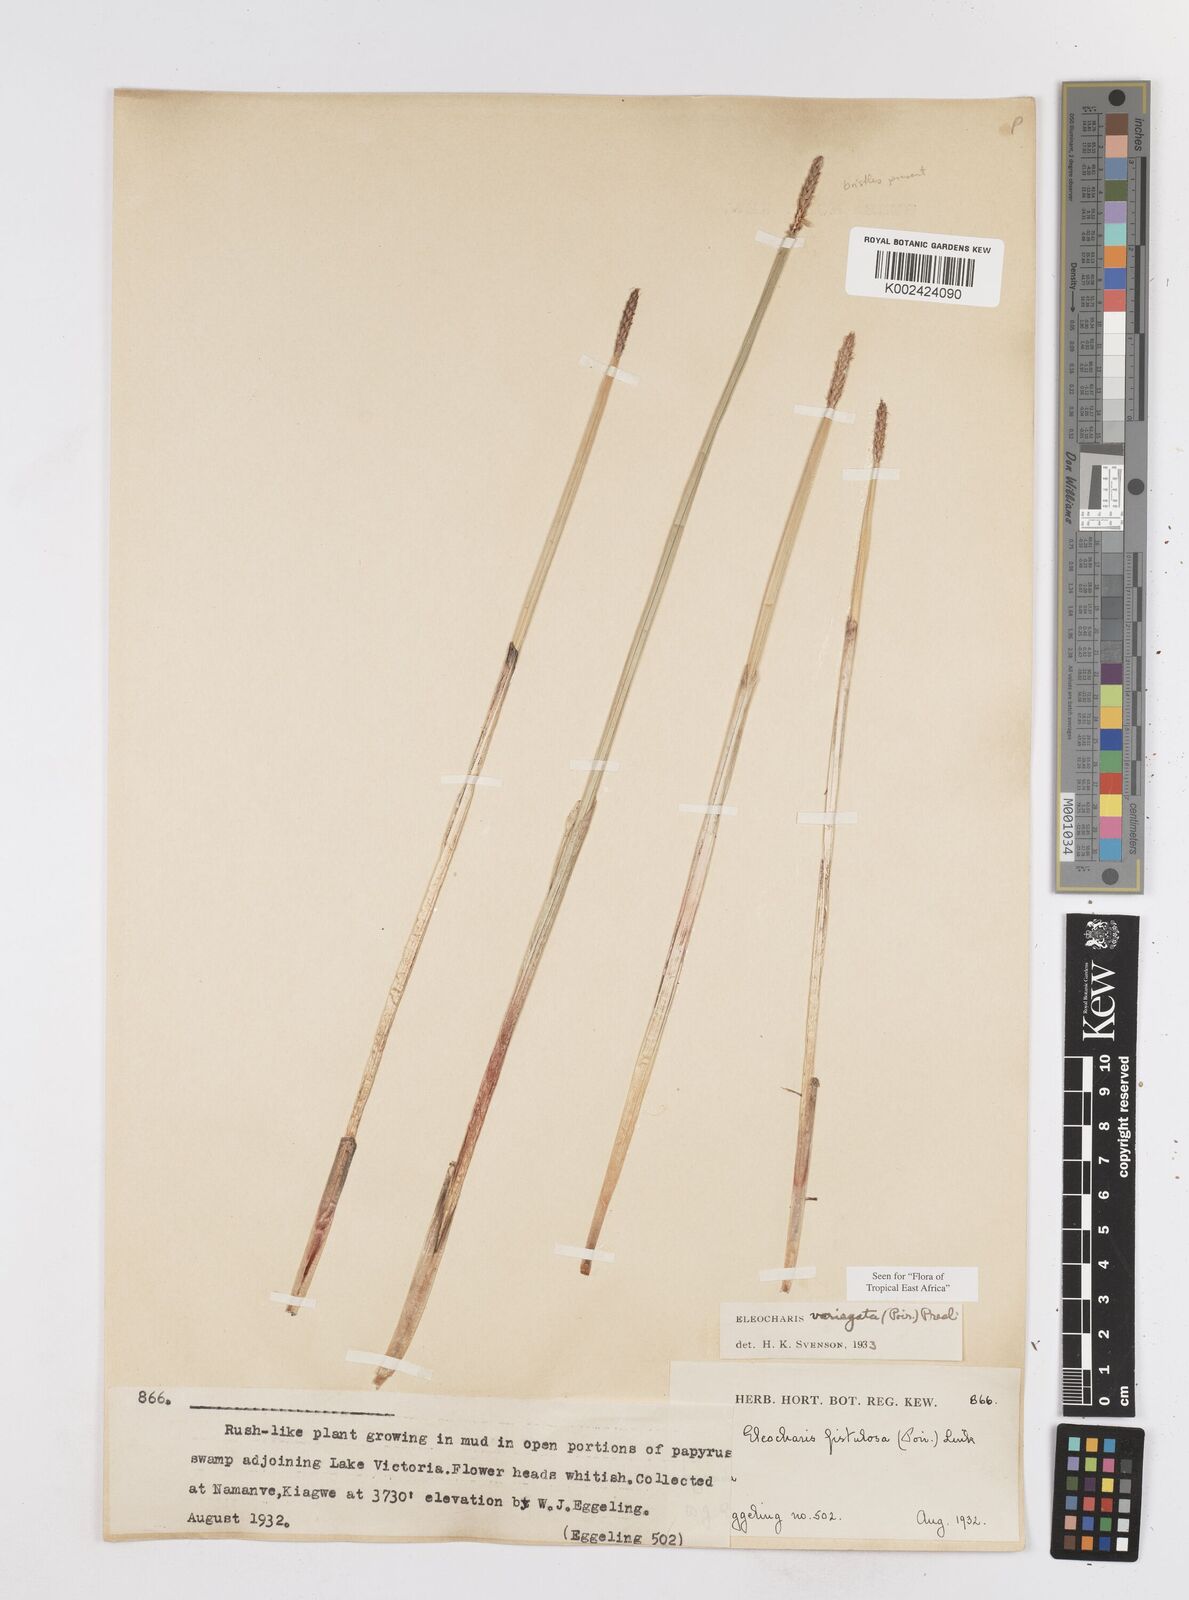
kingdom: Plantae
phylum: Tracheophyta
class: Liliopsida
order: Poales
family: Cyperaceae
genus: Eleocharis
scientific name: Eleocharis variegata
